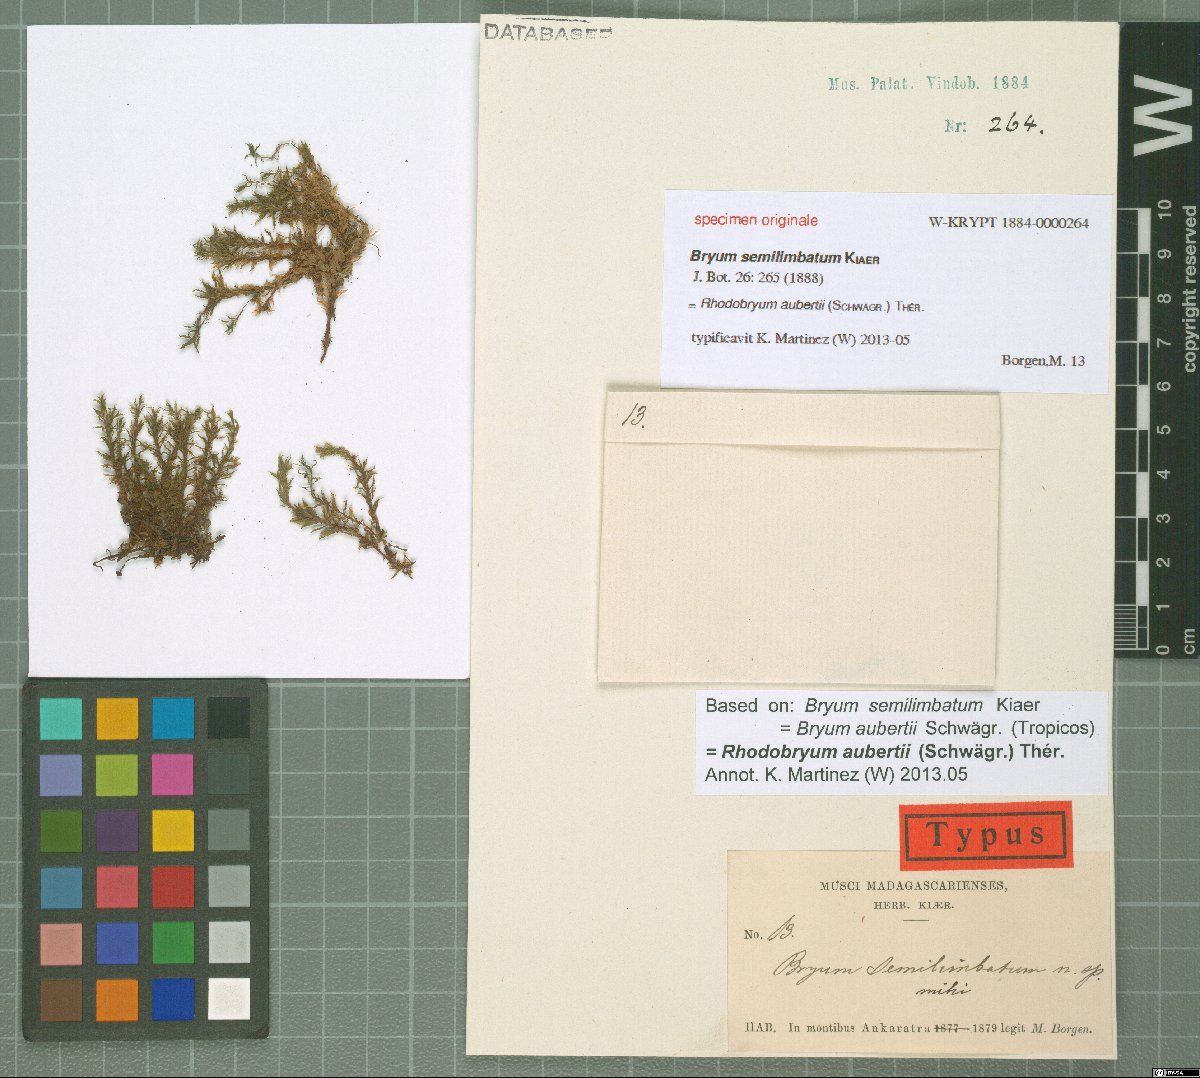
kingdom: Plantae
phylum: Bryophyta
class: Bryopsida
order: Bryales
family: Bryaceae
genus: Bryum
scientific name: Bryum
